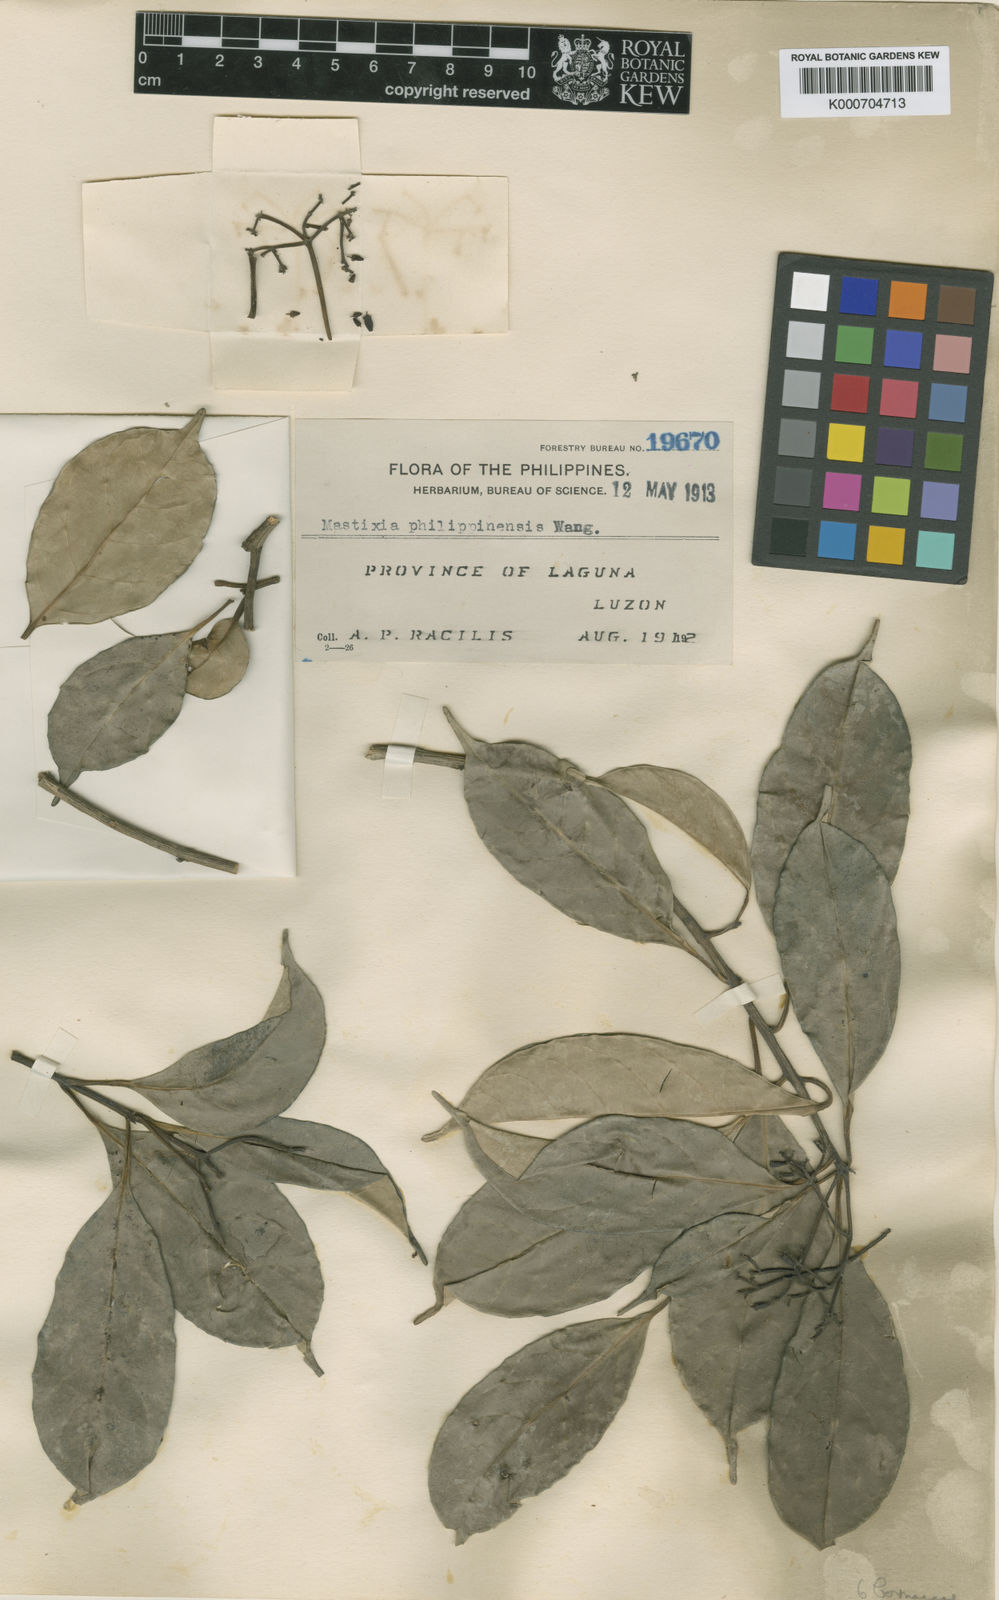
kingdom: Plantae
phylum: Tracheophyta
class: Magnoliopsida
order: Cornales
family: Nyssaceae
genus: Mastixia
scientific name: Mastixia pentandra
